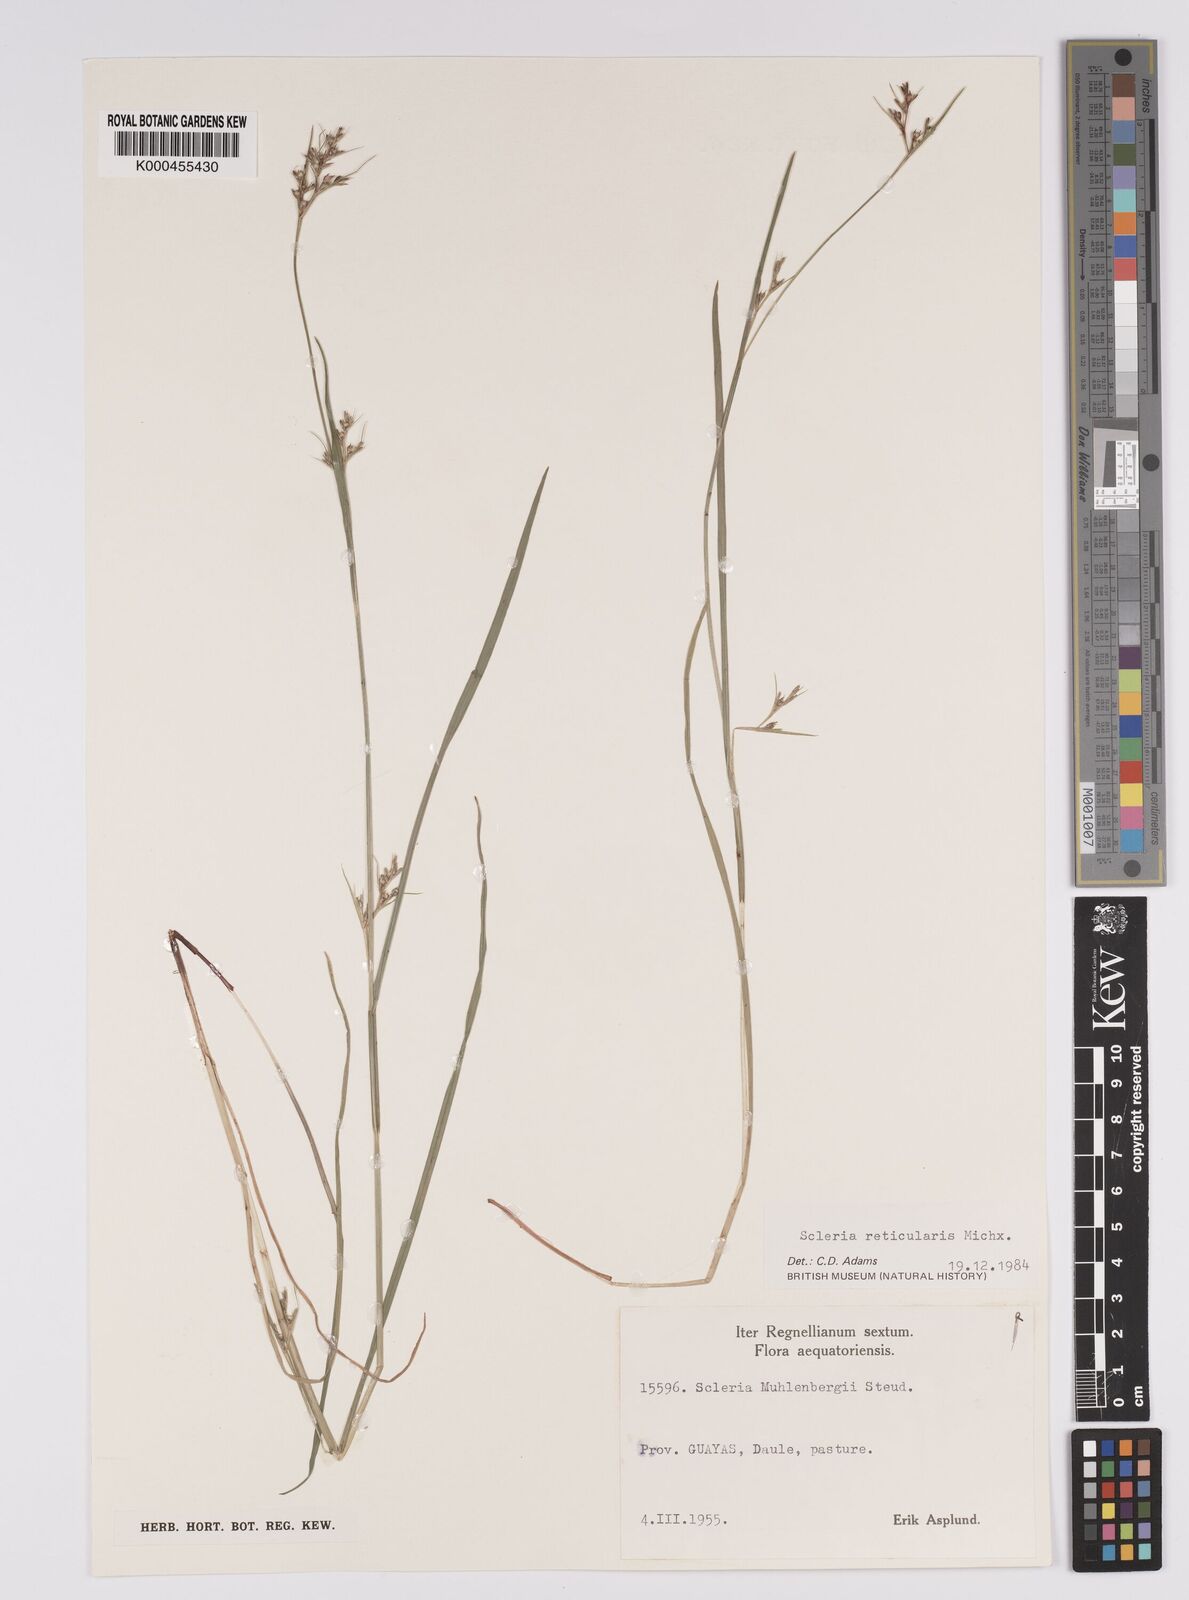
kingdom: Plantae
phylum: Tracheophyta
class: Liliopsida
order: Poales
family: Cyperaceae
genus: Scleria
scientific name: Scleria
